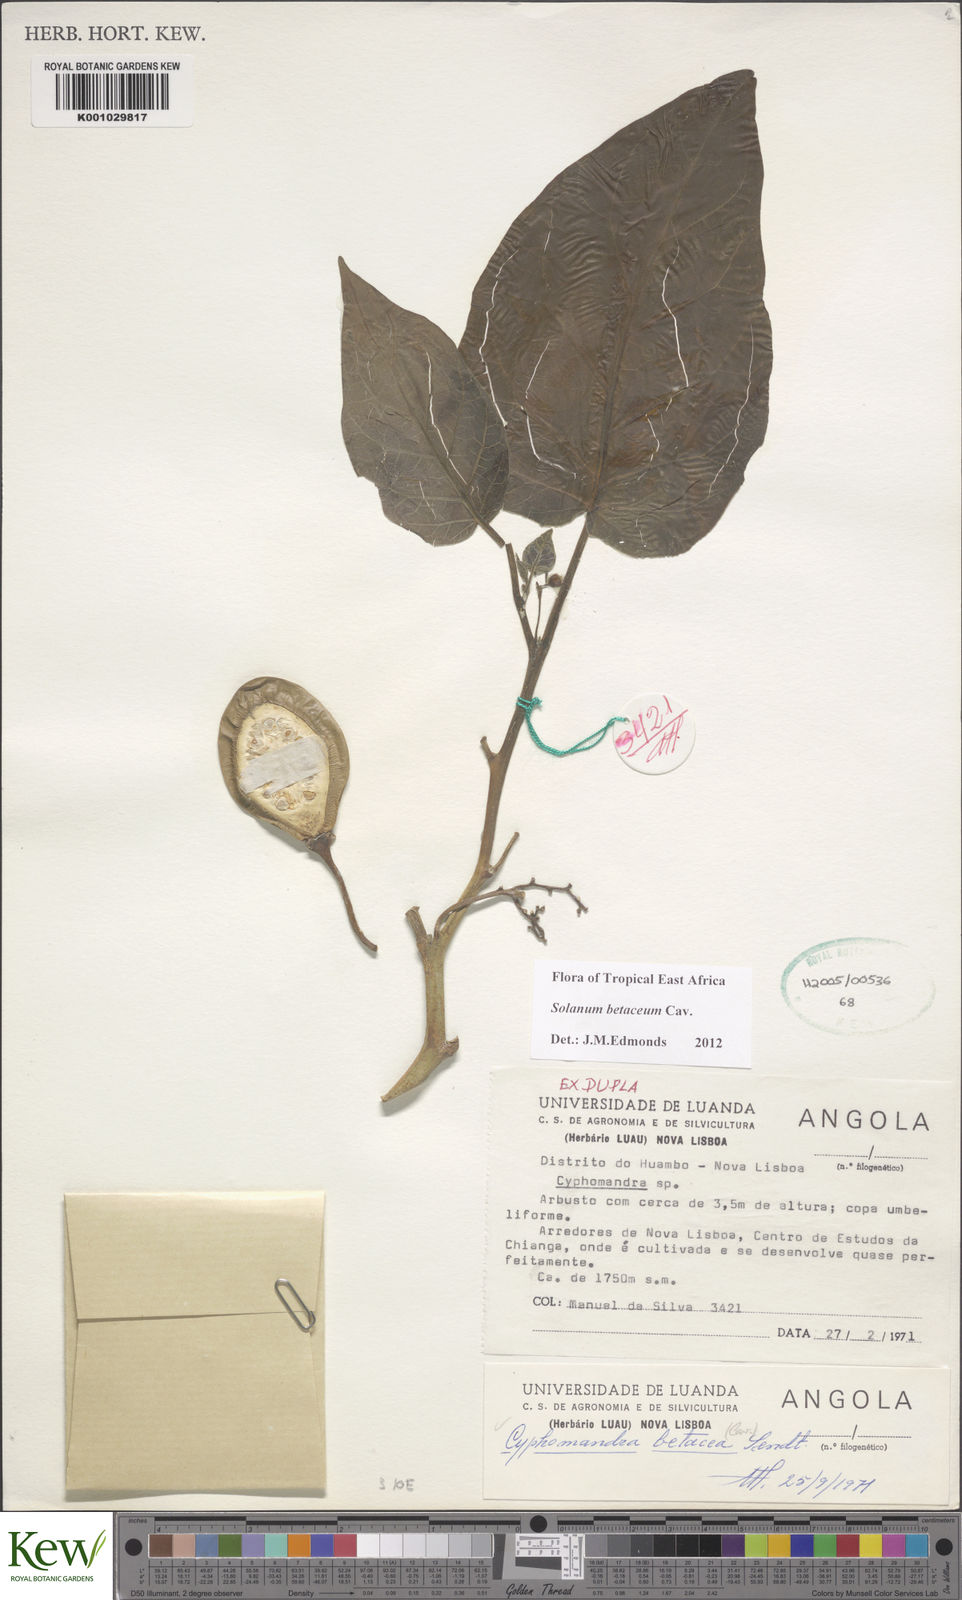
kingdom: Plantae
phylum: Tracheophyta
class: Magnoliopsida
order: Solanales
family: Solanaceae
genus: Solanum
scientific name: Solanum betaceum
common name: Tamarillo
